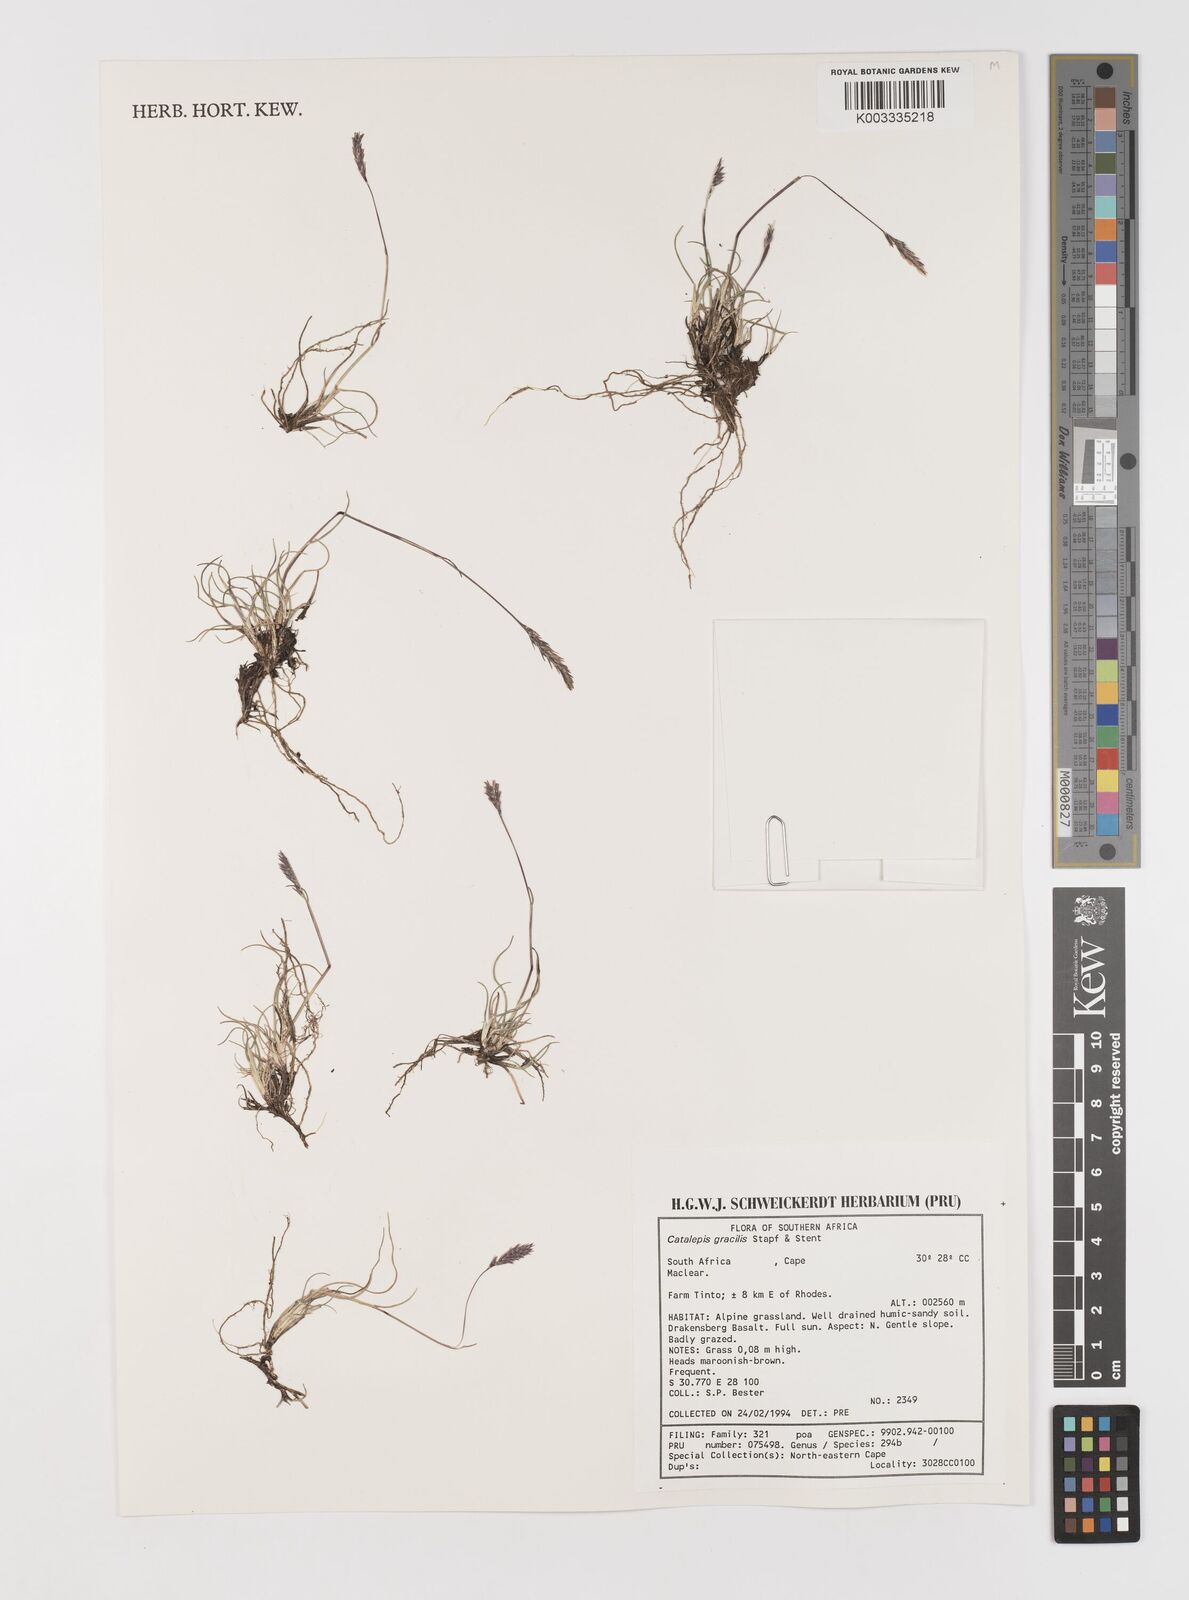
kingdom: Plantae
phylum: Tracheophyta
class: Liliopsida
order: Poales
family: Poaceae
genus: Catalepis
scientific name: Catalepis gracilis
